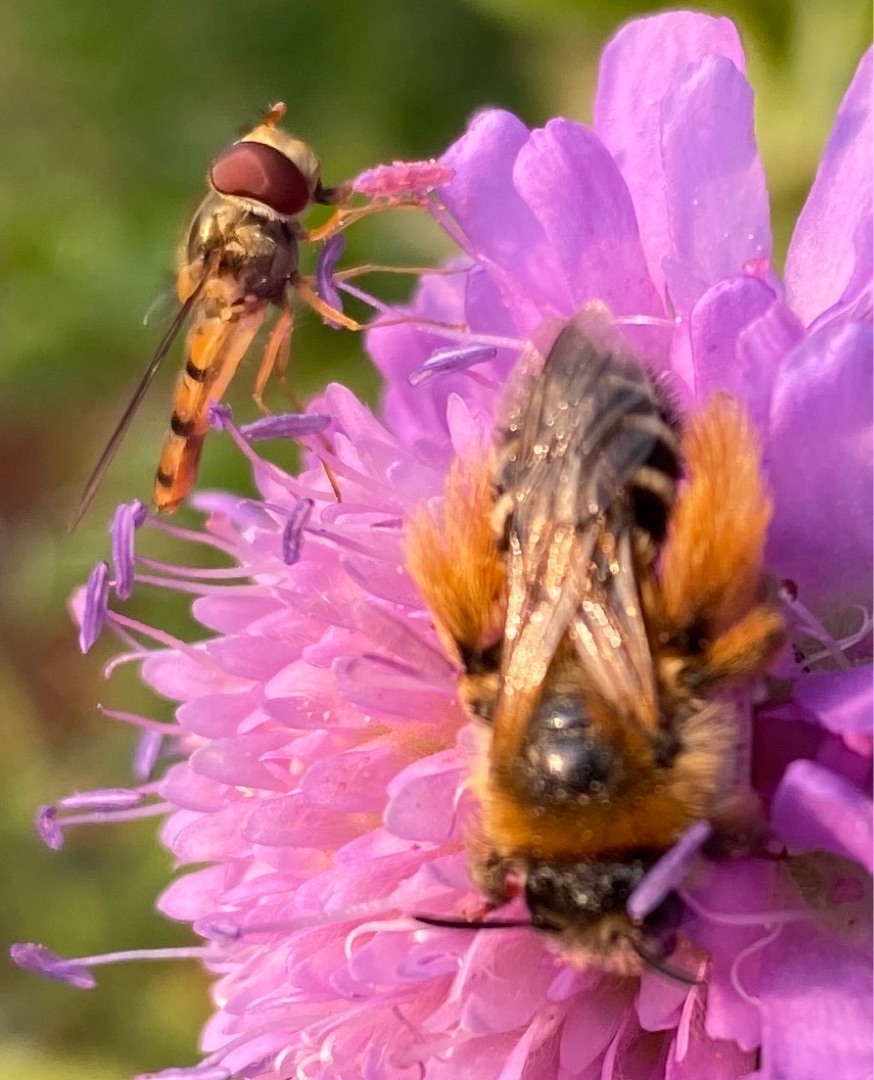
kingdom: Animalia
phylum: Arthropoda
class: Insecta
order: Hymenoptera
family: Melittidae
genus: Dasypoda
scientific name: Dasypoda hirtipes
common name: Pragtbuksebi
